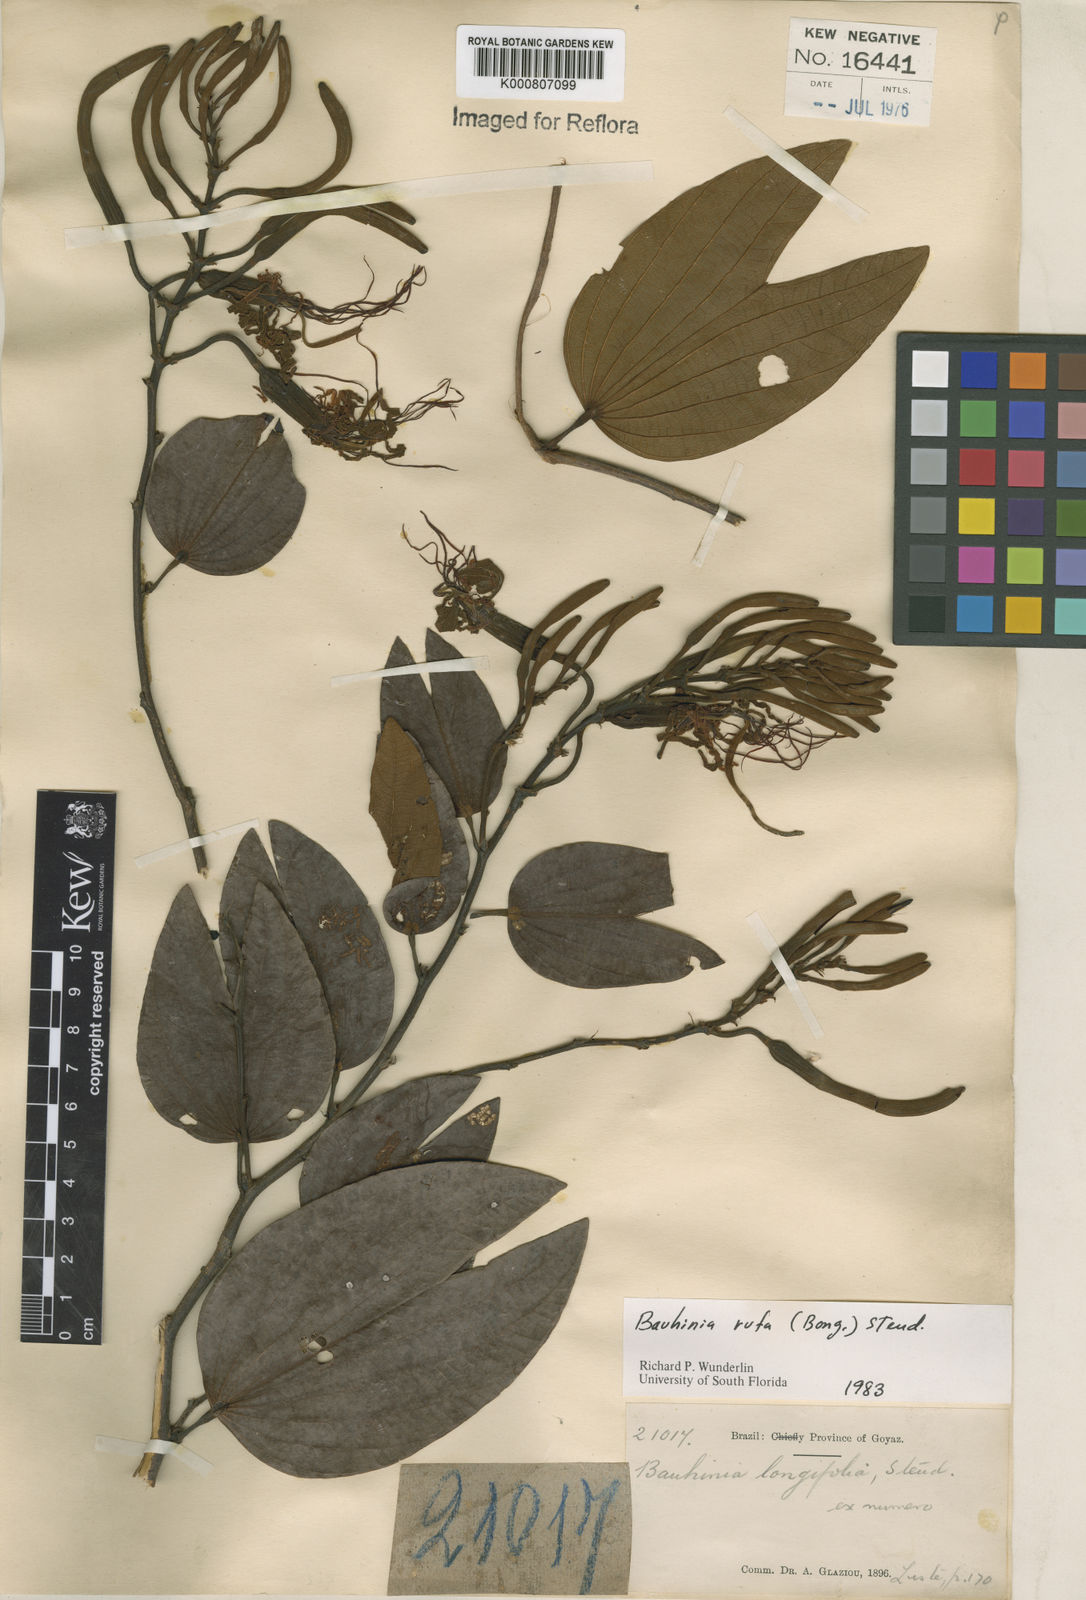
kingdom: Plantae
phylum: Tracheophyta
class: Magnoliopsida
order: Fabales
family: Fabaceae
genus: Bauhinia
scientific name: Bauhinia rufa
